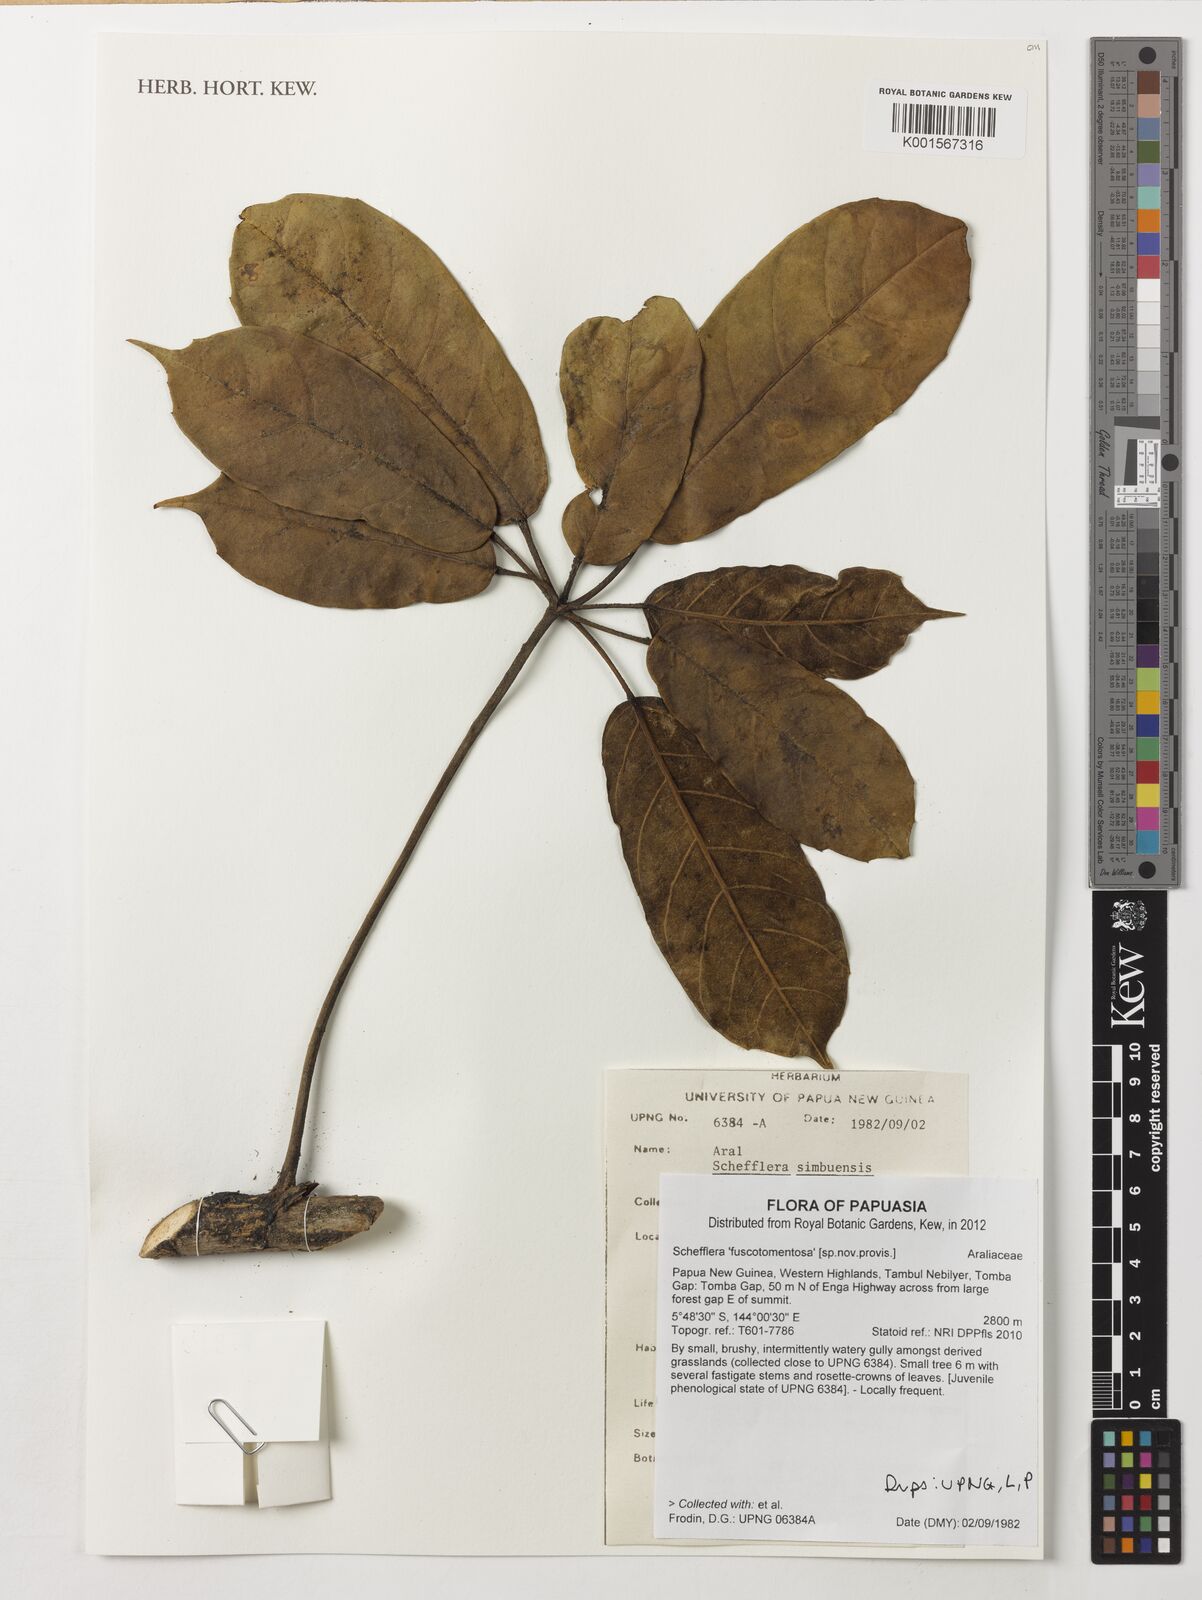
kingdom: Plantae
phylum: Tracheophyta
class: Magnoliopsida
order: Apiales
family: Araliaceae
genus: Schefflera
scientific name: Schefflera
